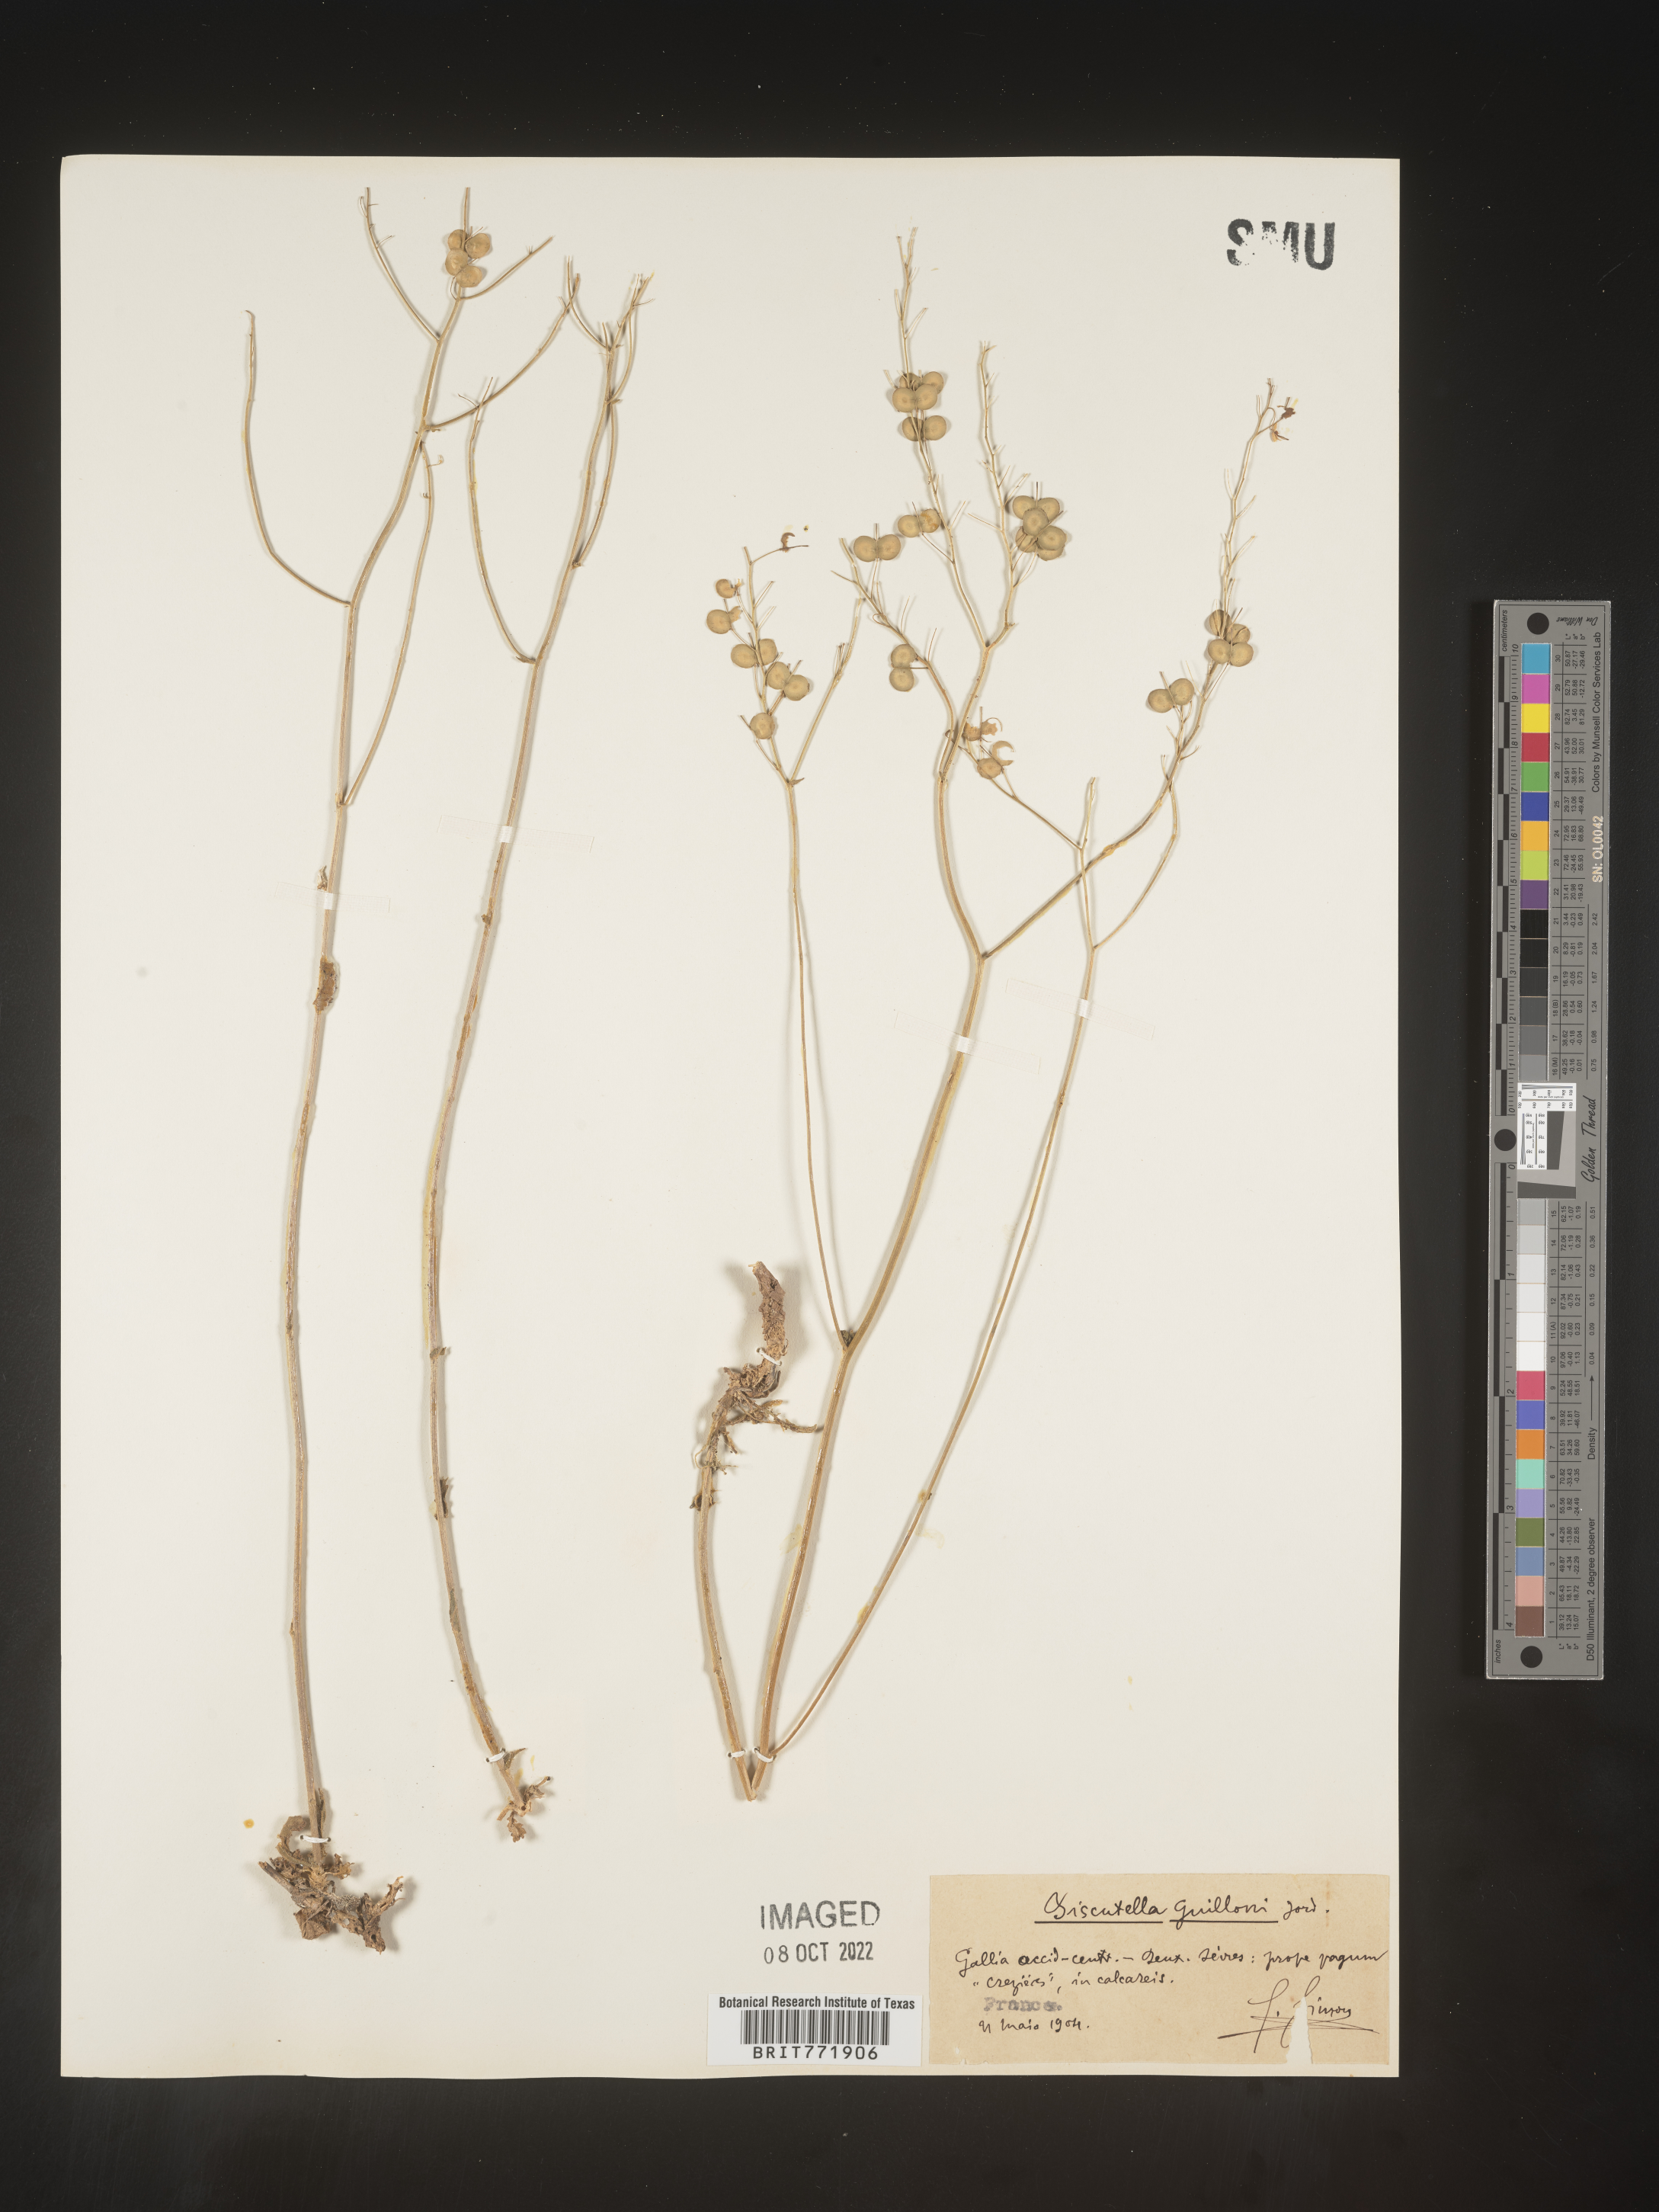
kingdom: Plantae
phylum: Tracheophyta
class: Magnoliopsida
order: Brassicales
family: Brassicaceae
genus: Biscutella
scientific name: Biscutella
